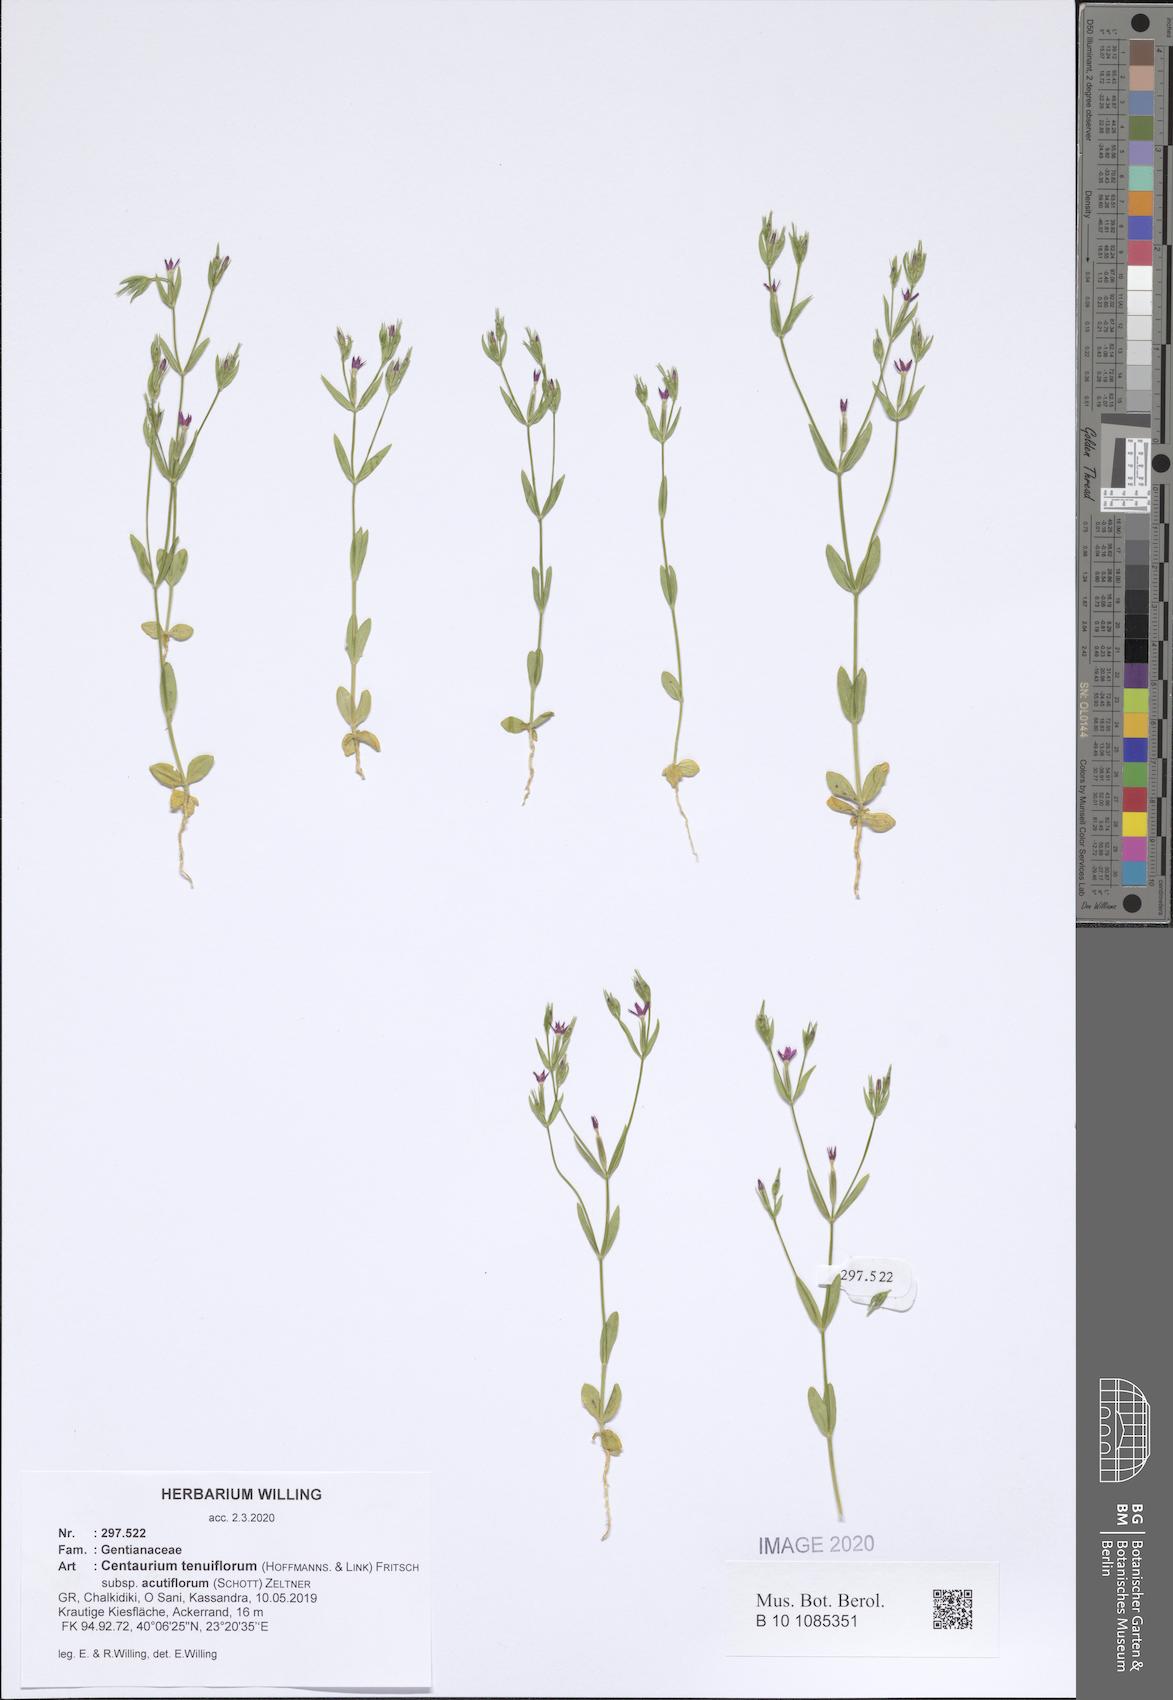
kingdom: Plantae
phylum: Tracheophyta
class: Magnoliopsida
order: Gentianales
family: Gentianaceae
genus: Centaurium
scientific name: Centaurium tenuiflorum
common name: Slender centaury
